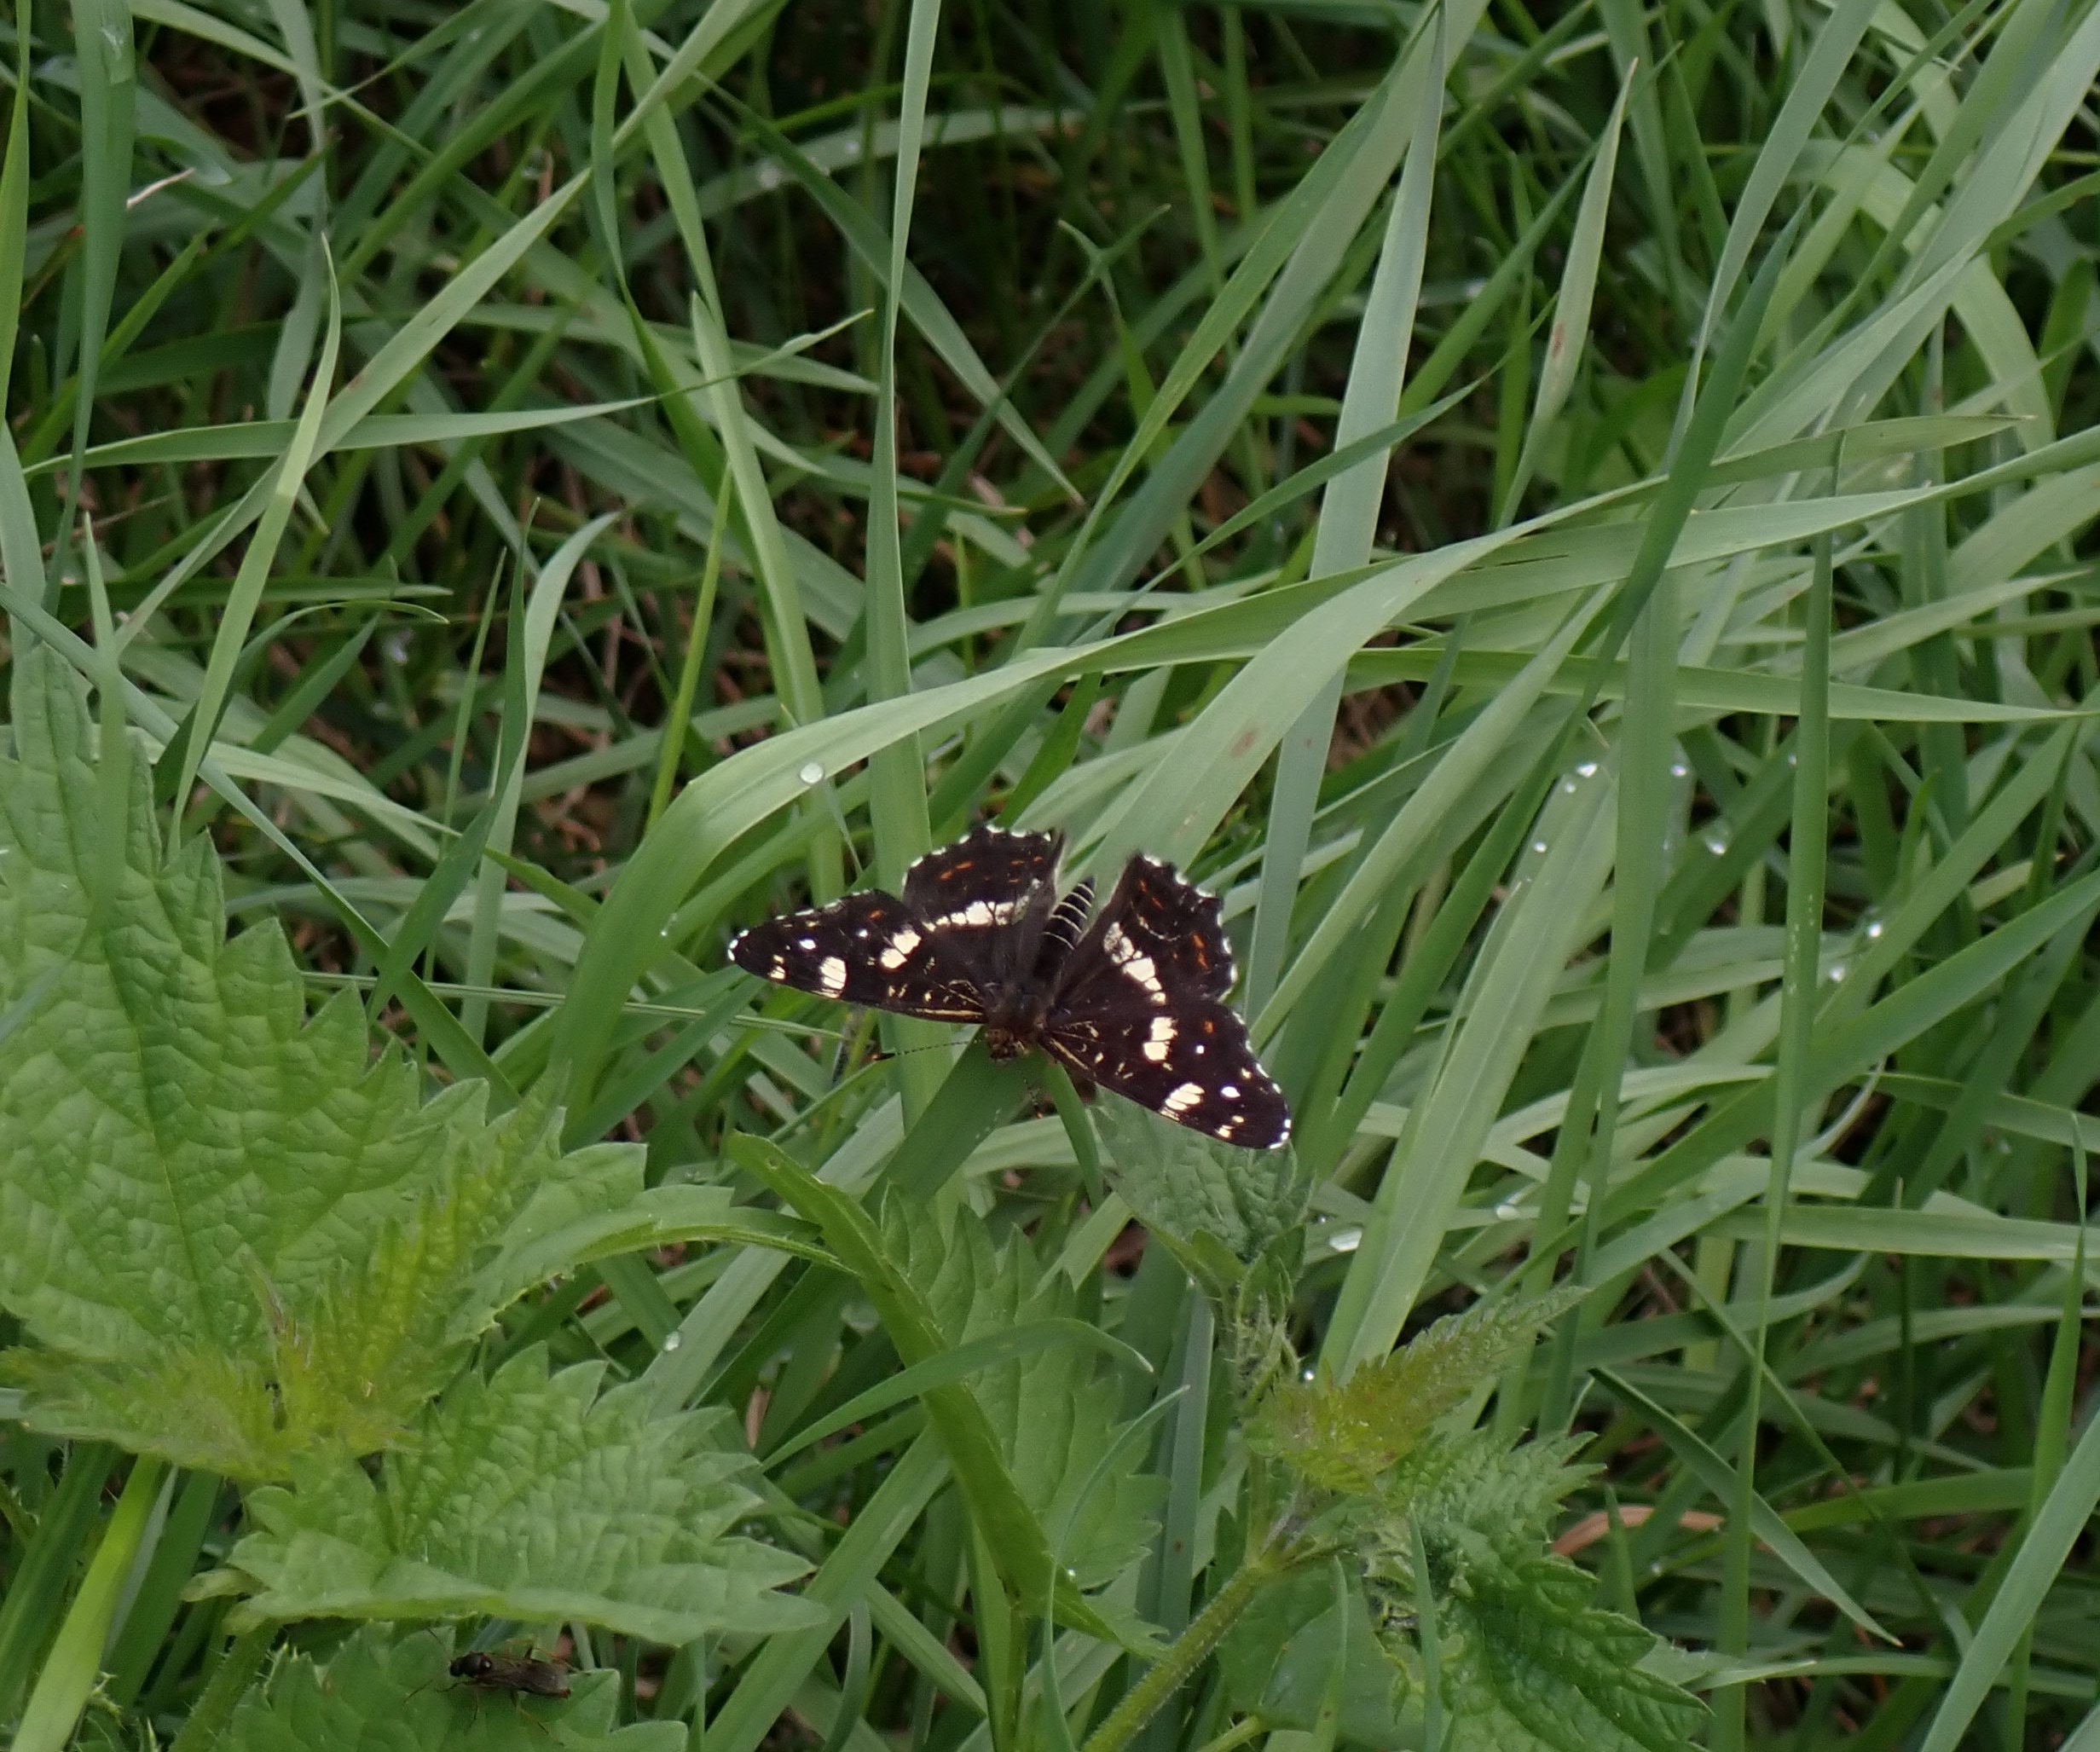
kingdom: Animalia
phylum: Arthropoda
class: Insecta
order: Lepidoptera
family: Nymphalidae
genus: Araschnia
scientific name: Araschnia levana
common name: Nældesommerfugl
